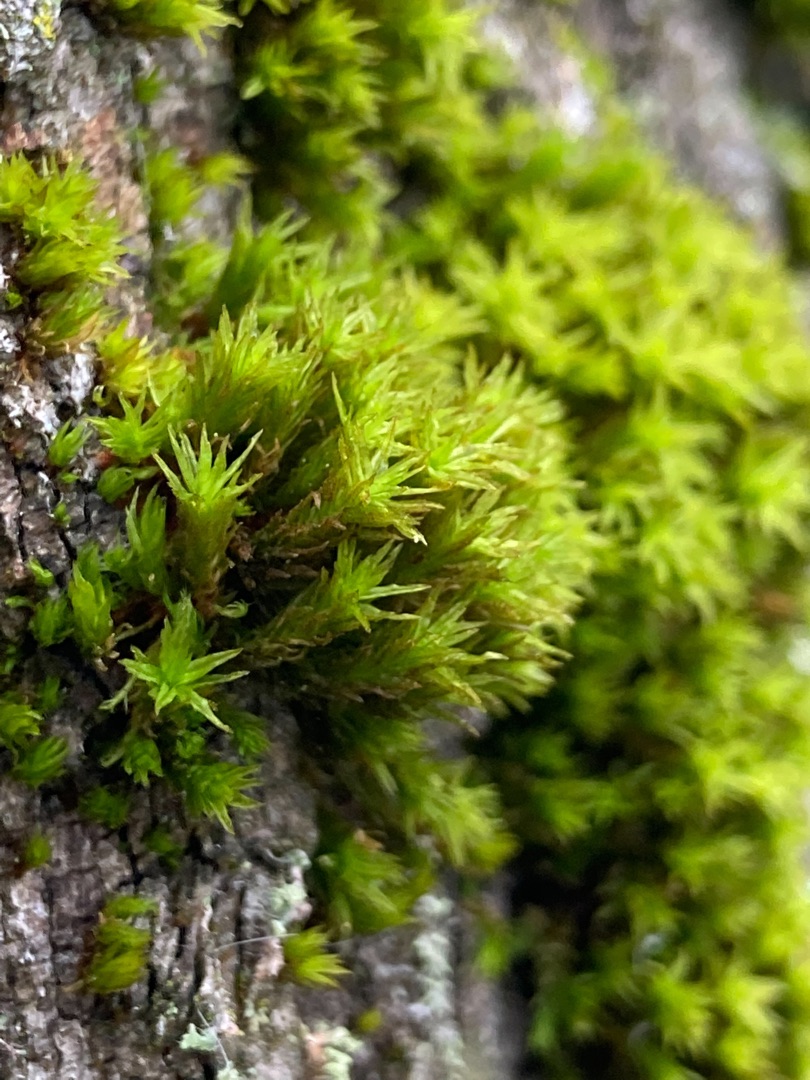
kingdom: Plantae
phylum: Bryophyta
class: Bryopsida
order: Orthotrichales
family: Orthotrichaceae
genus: Pulvigera
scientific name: Pulvigera lyellii
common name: Stor furehætte
